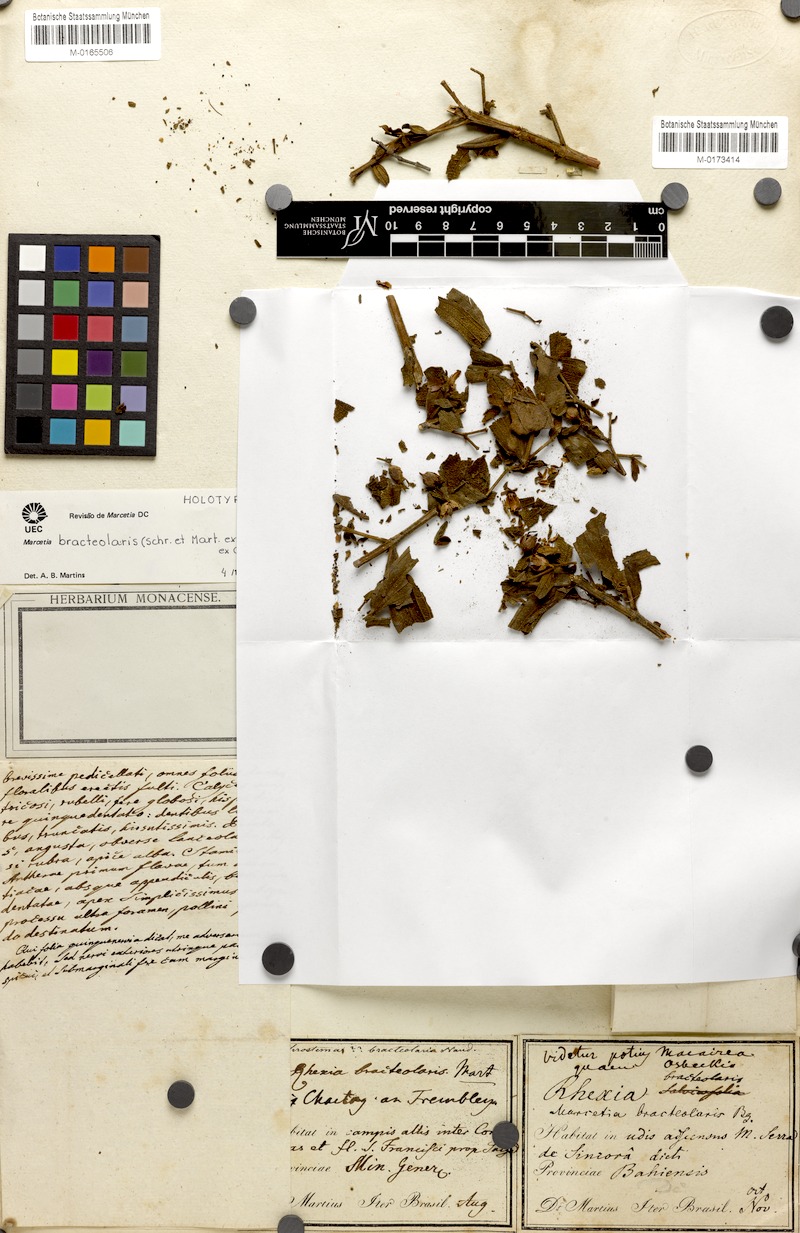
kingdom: Plantae
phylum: Tracheophyta
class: Magnoliopsida
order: Myrtales
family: Melastomataceae
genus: Marcetia
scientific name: Marcetia bracteolaris
